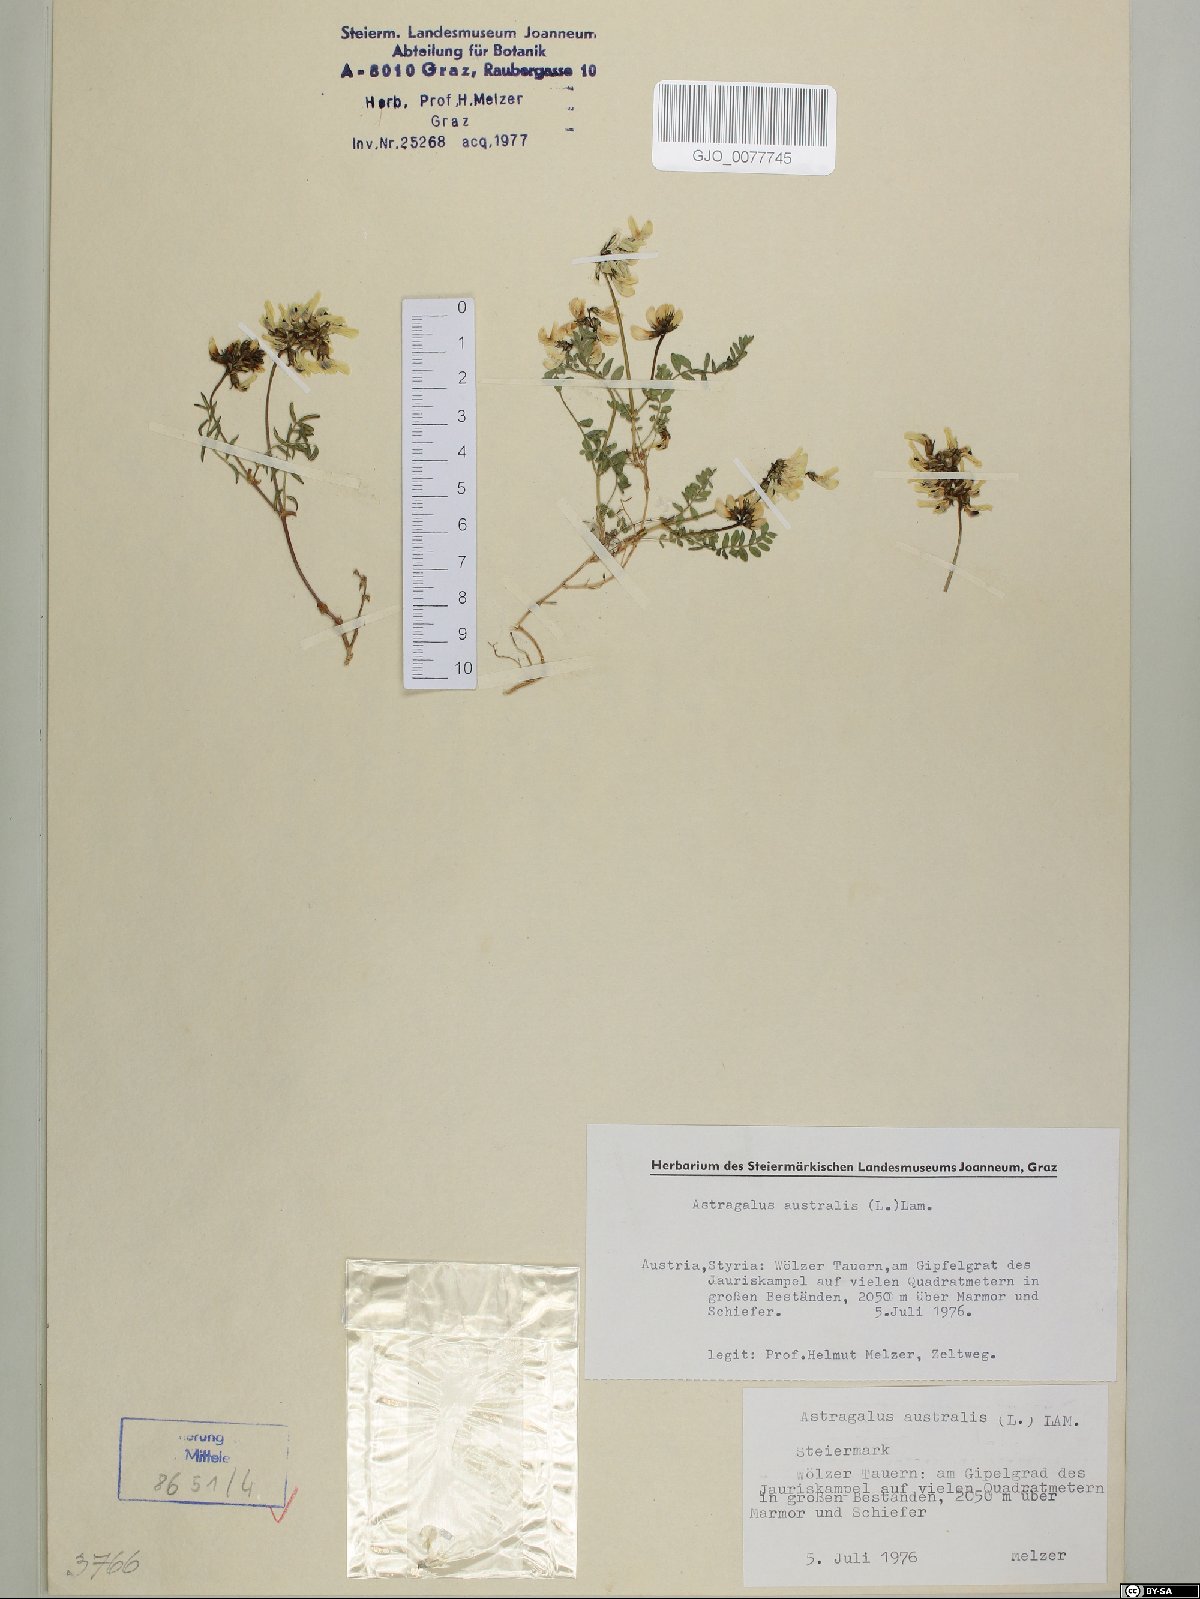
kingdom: Plantae
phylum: Tracheophyta
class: Magnoliopsida
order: Fabales
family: Fabaceae
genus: Astragalus
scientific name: Astragalus australis
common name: Indian milk-vetch
